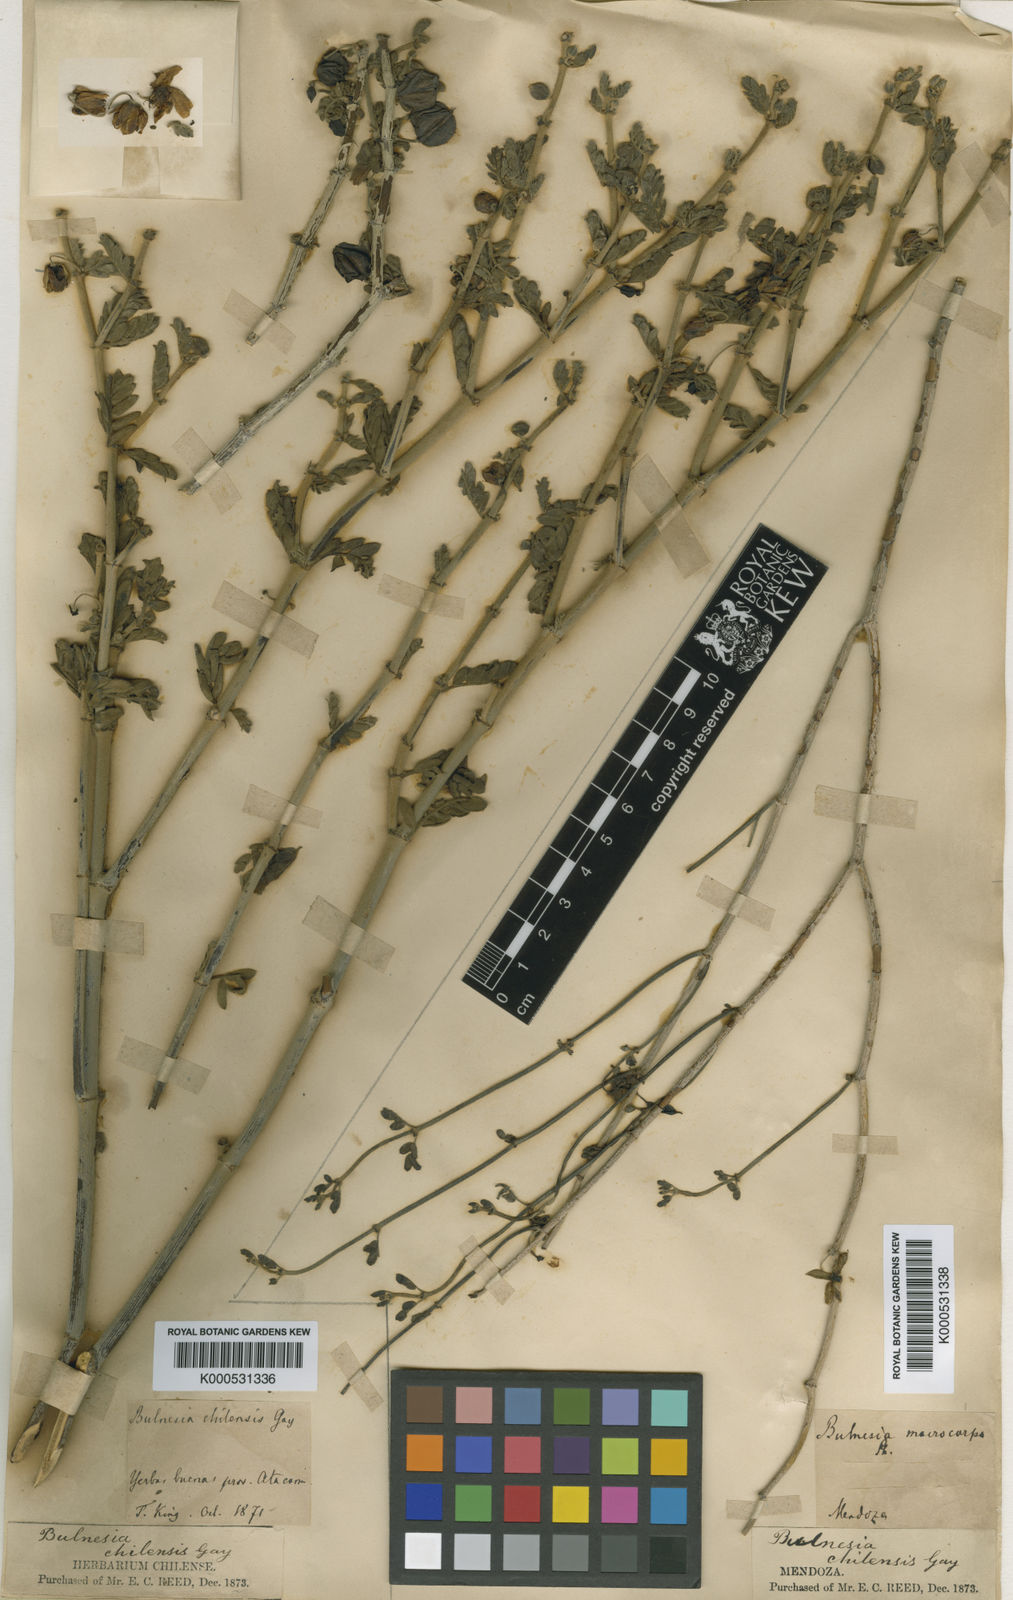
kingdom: Plantae
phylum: Tracheophyta
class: Magnoliopsida
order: Zygophyllales
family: Zygophyllaceae
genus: Bulnesia
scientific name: Bulnesia chilensis
